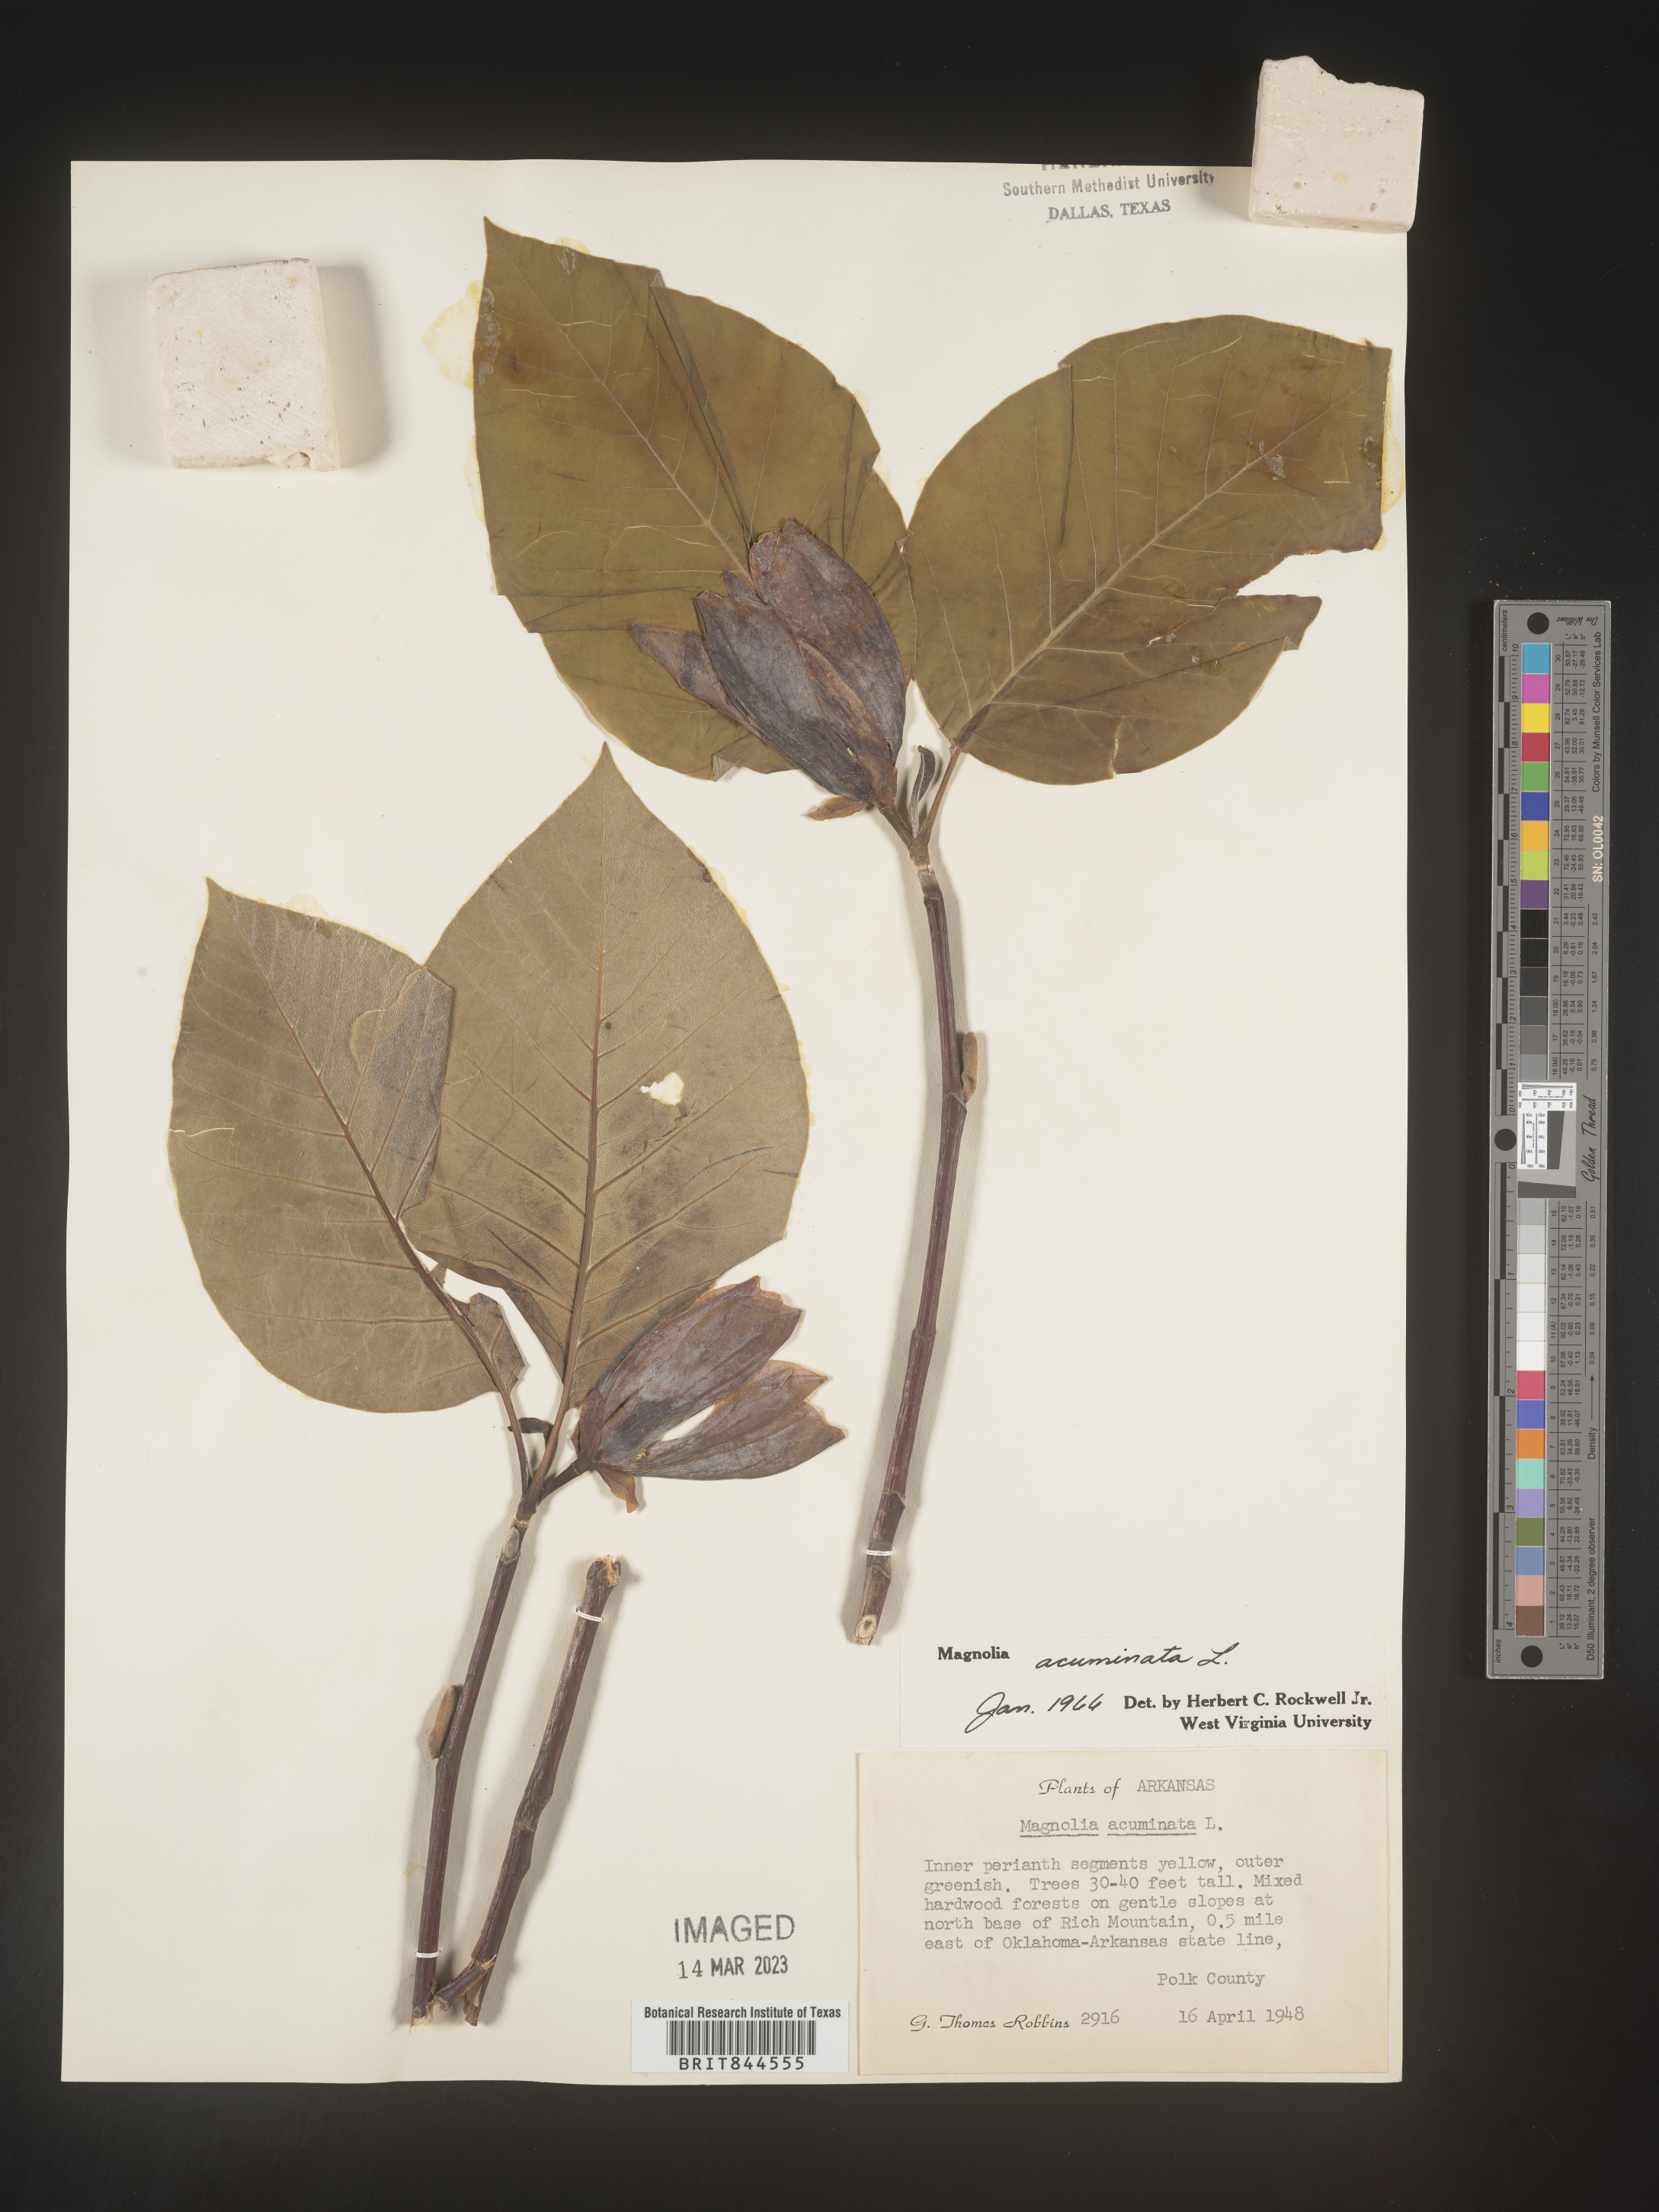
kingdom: Plantae
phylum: Tracheophyta
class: Magnoliopsida
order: Magnoliales
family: Magnoliaceae
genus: Magnolia
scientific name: Magnolia acuminata
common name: Cucumber magnolia
